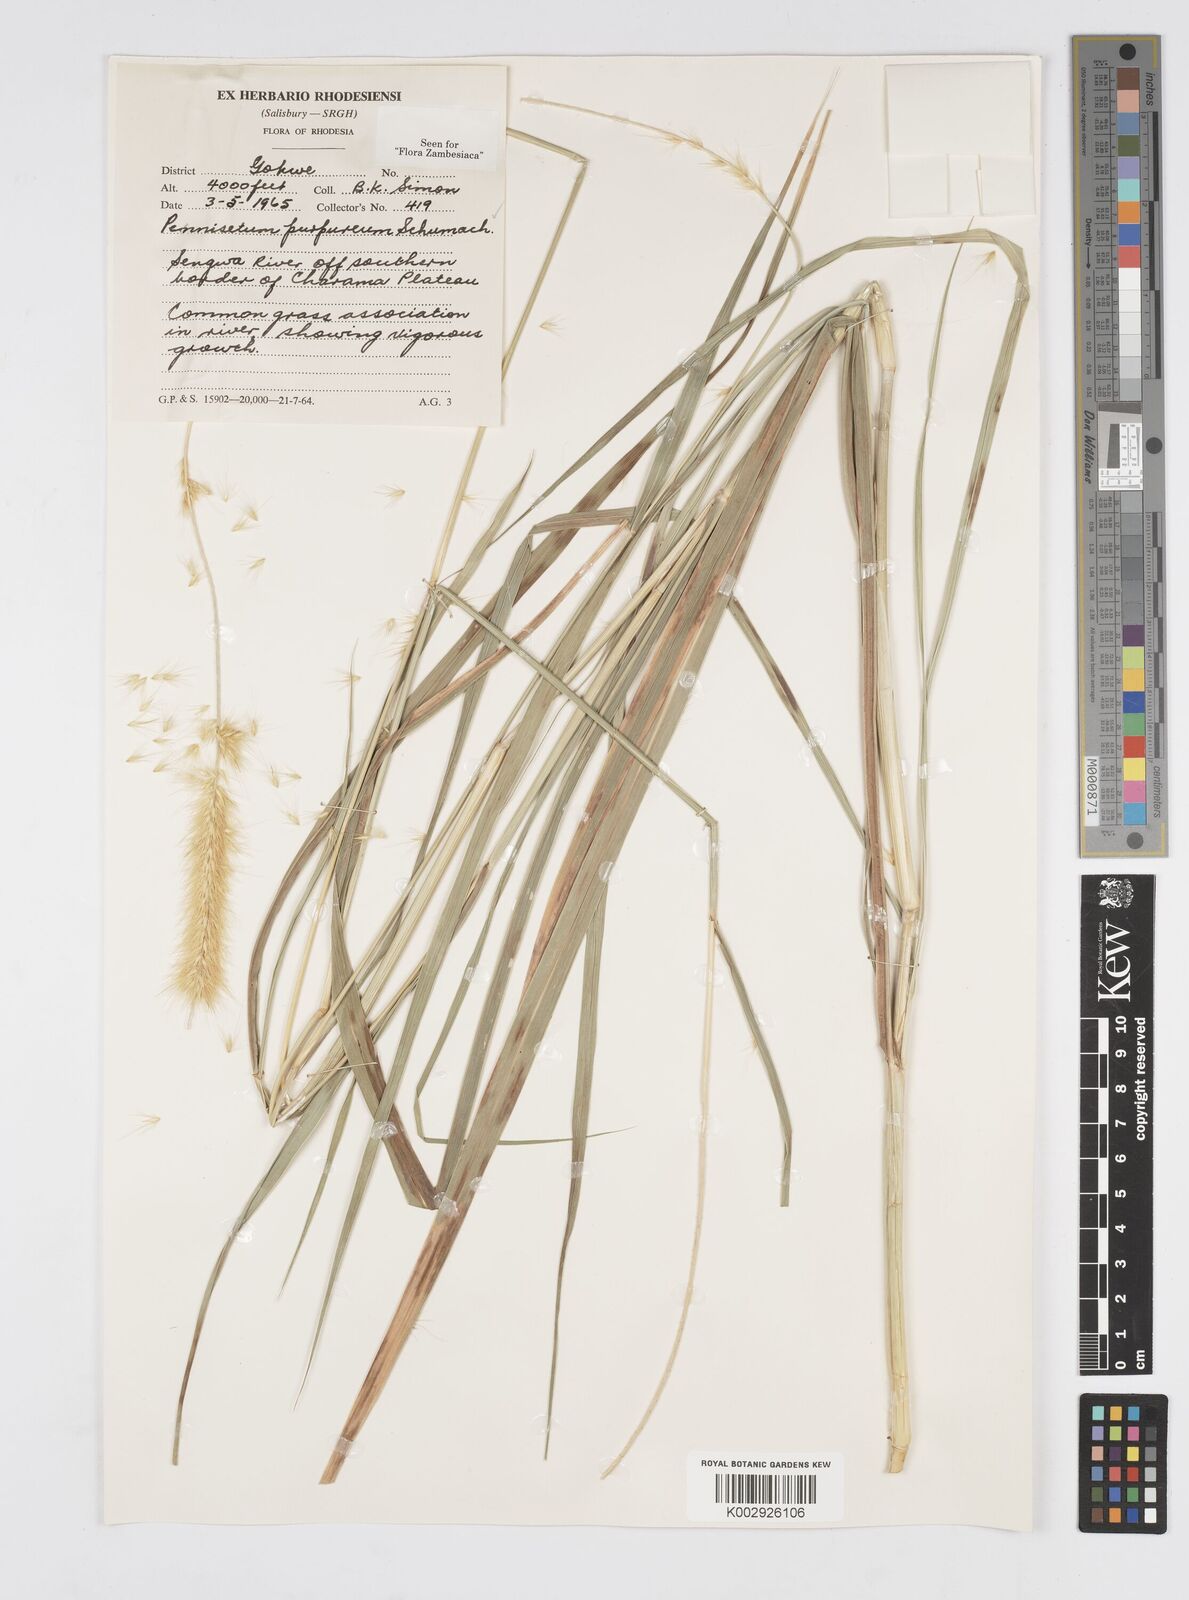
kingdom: Plantae
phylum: Tracheophyta
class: Liliopsida
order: Poales
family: Poaceae
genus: Cenchrus
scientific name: Cenchrus purpureus
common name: Elephant grass
